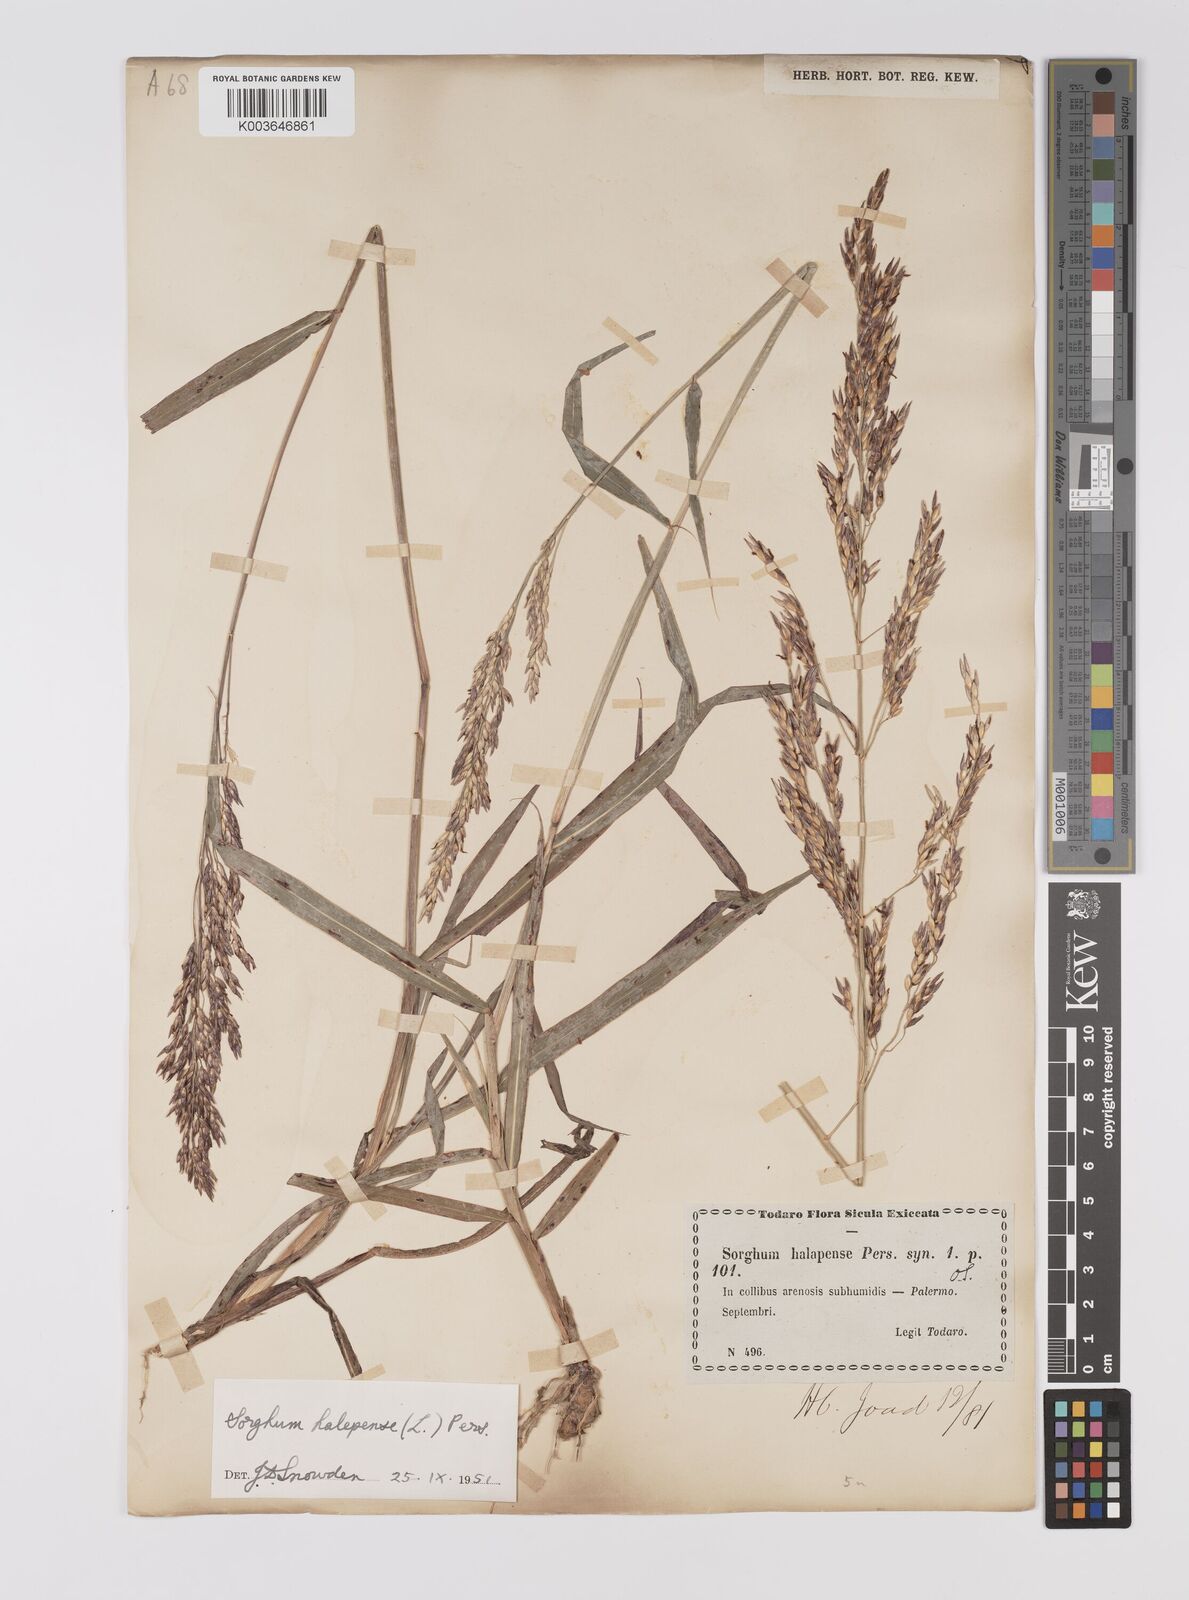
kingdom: Plantae
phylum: Tracheophyta
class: Liliopsida
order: Poales
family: Poaceae
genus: Sorghum
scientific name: Sorghum halepense
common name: Johnson-grass
